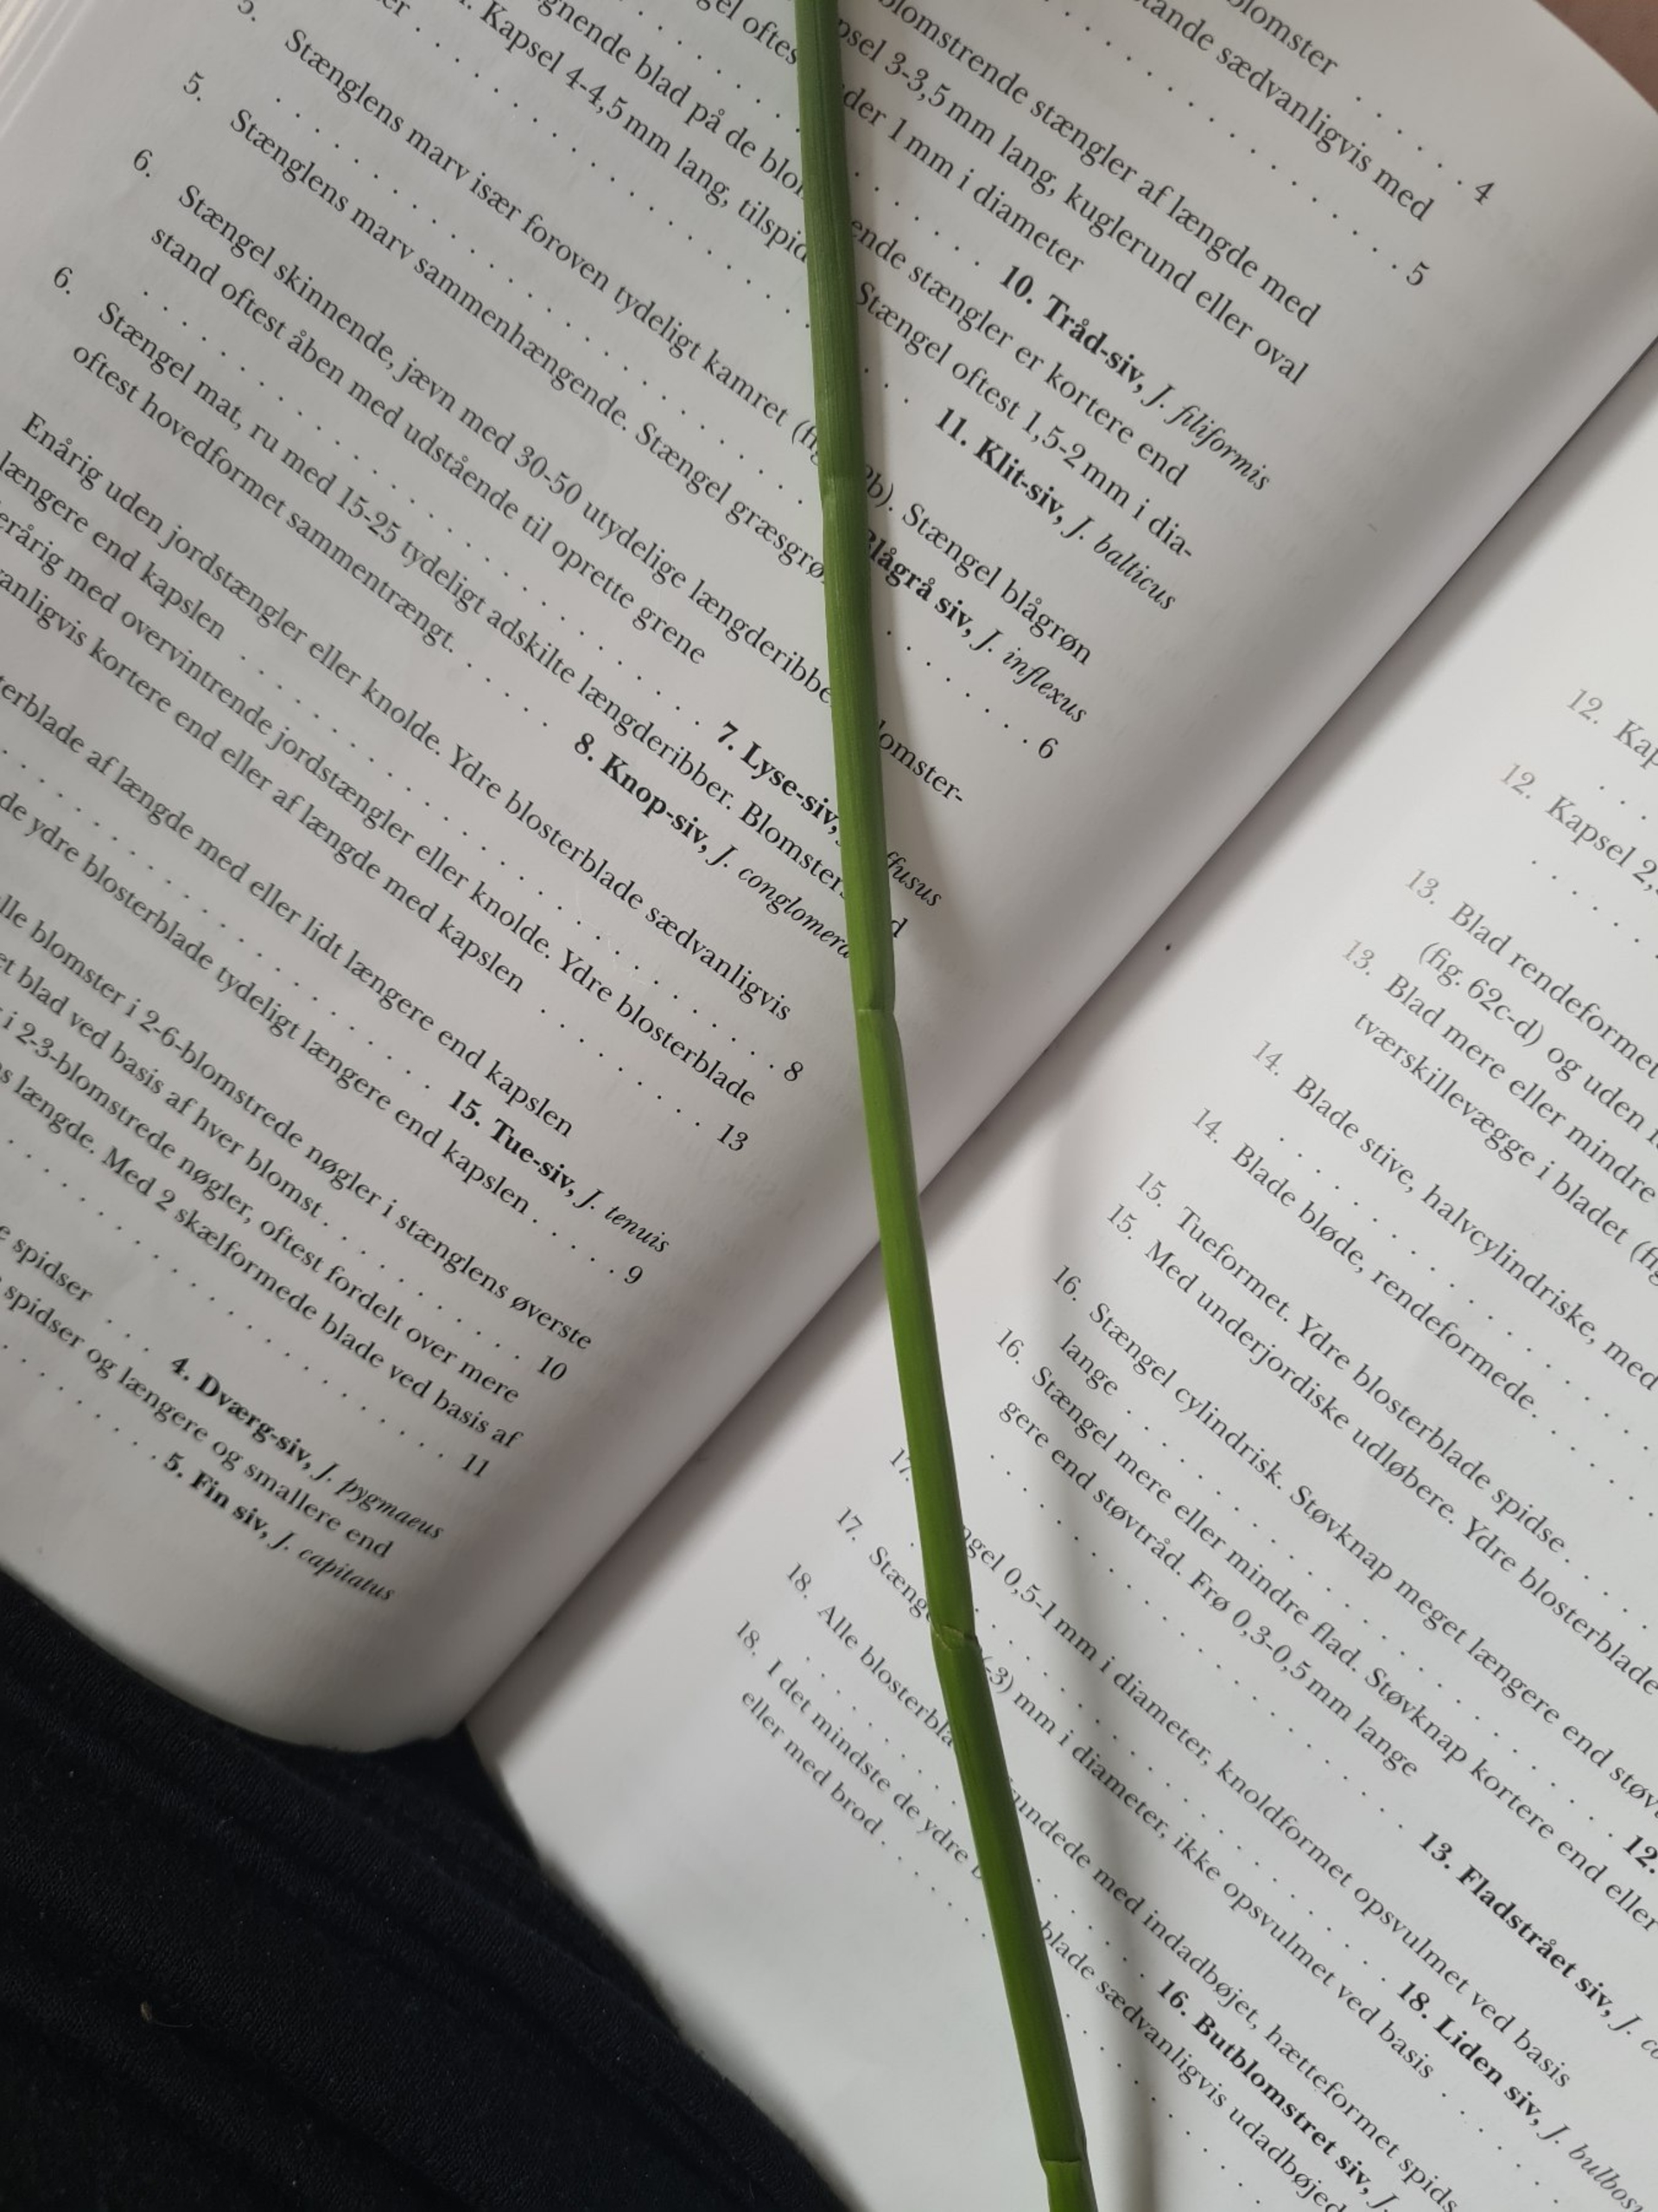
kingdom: Plantae
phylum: Tracheophyta
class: Liliopsida
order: Poales
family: Juncaceae
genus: Juncus
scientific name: Juncus effusus
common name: Lyse-siv
